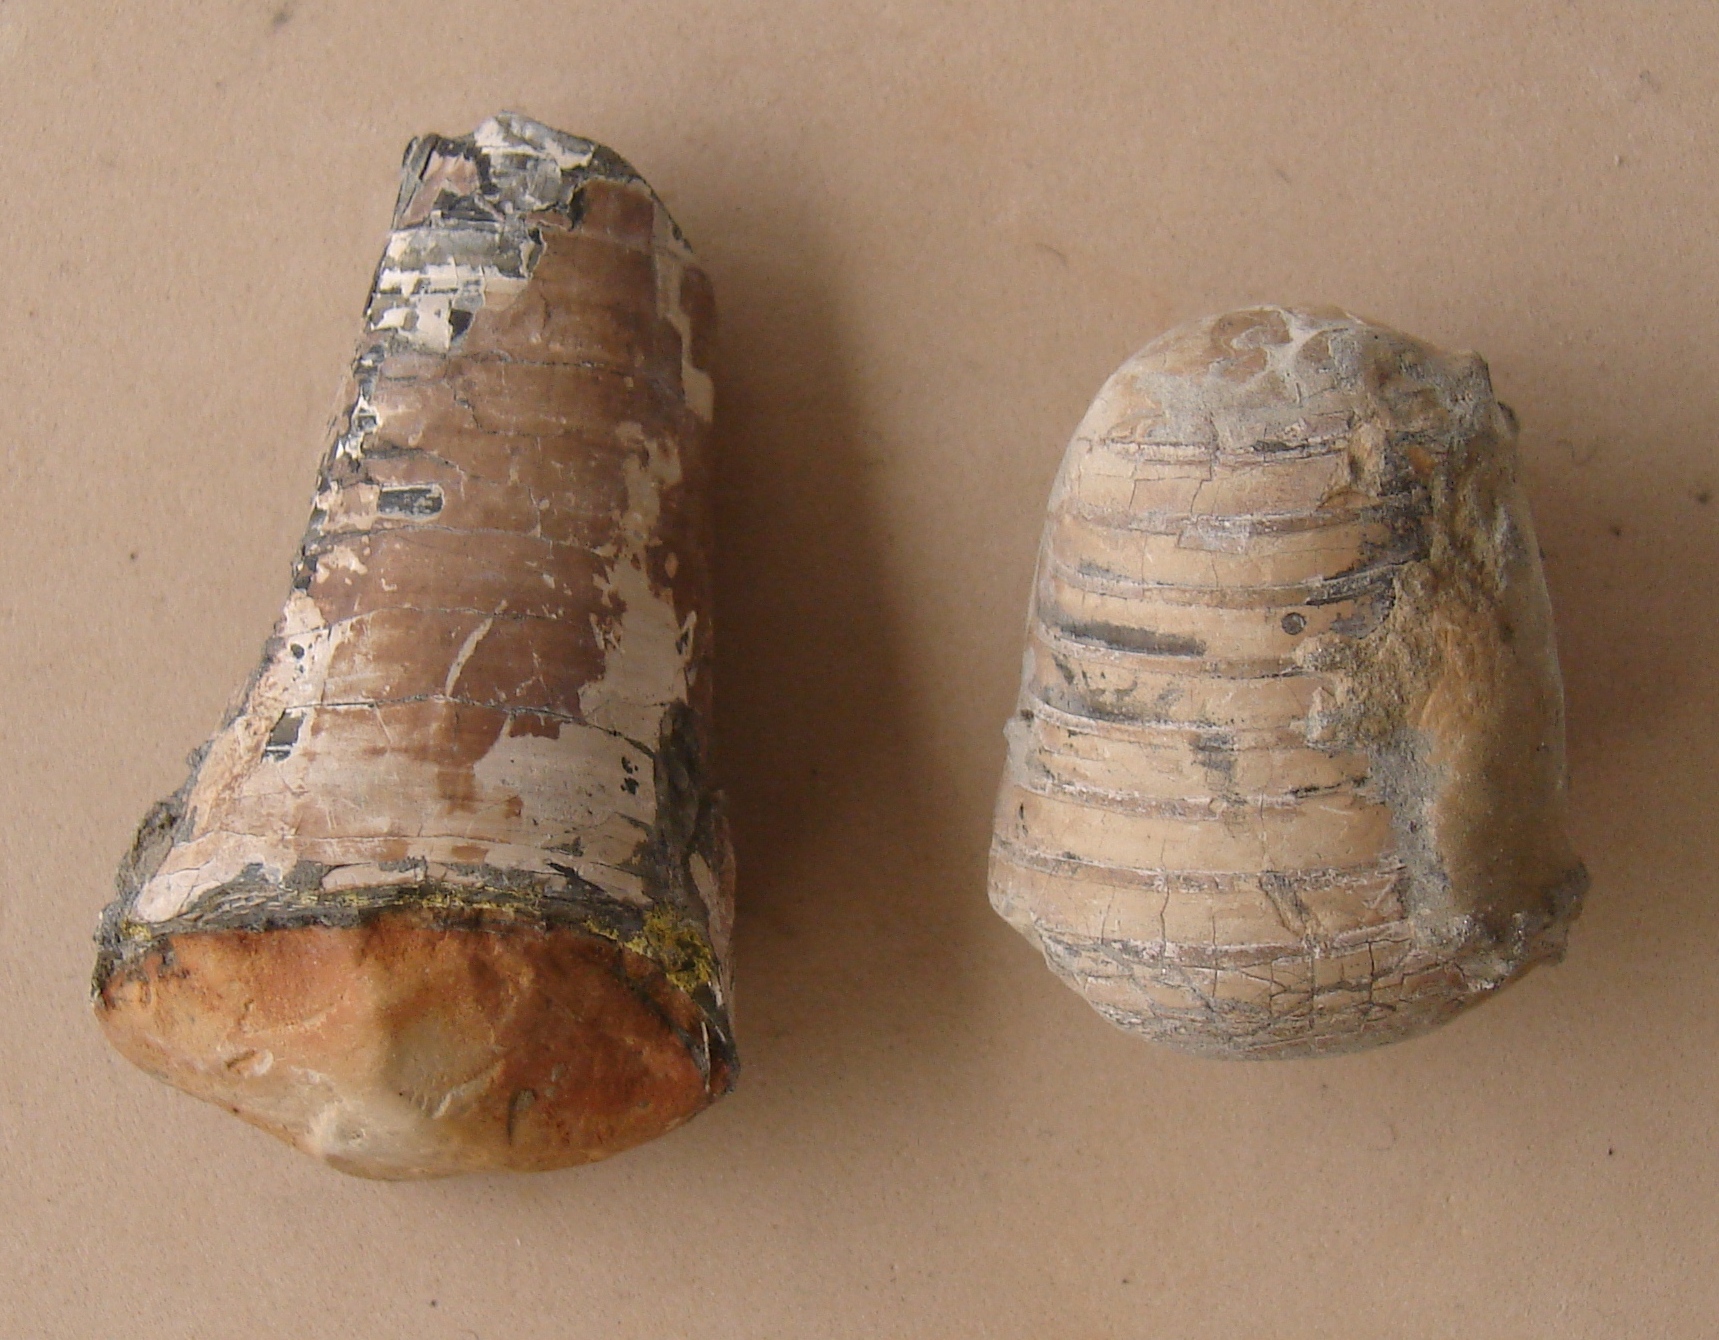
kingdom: Animalia
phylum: Mollusca
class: Cephalopoda
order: Belemnitida
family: Passaloteuthidae
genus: Passaloteuthis
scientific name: Passaloteuthis
